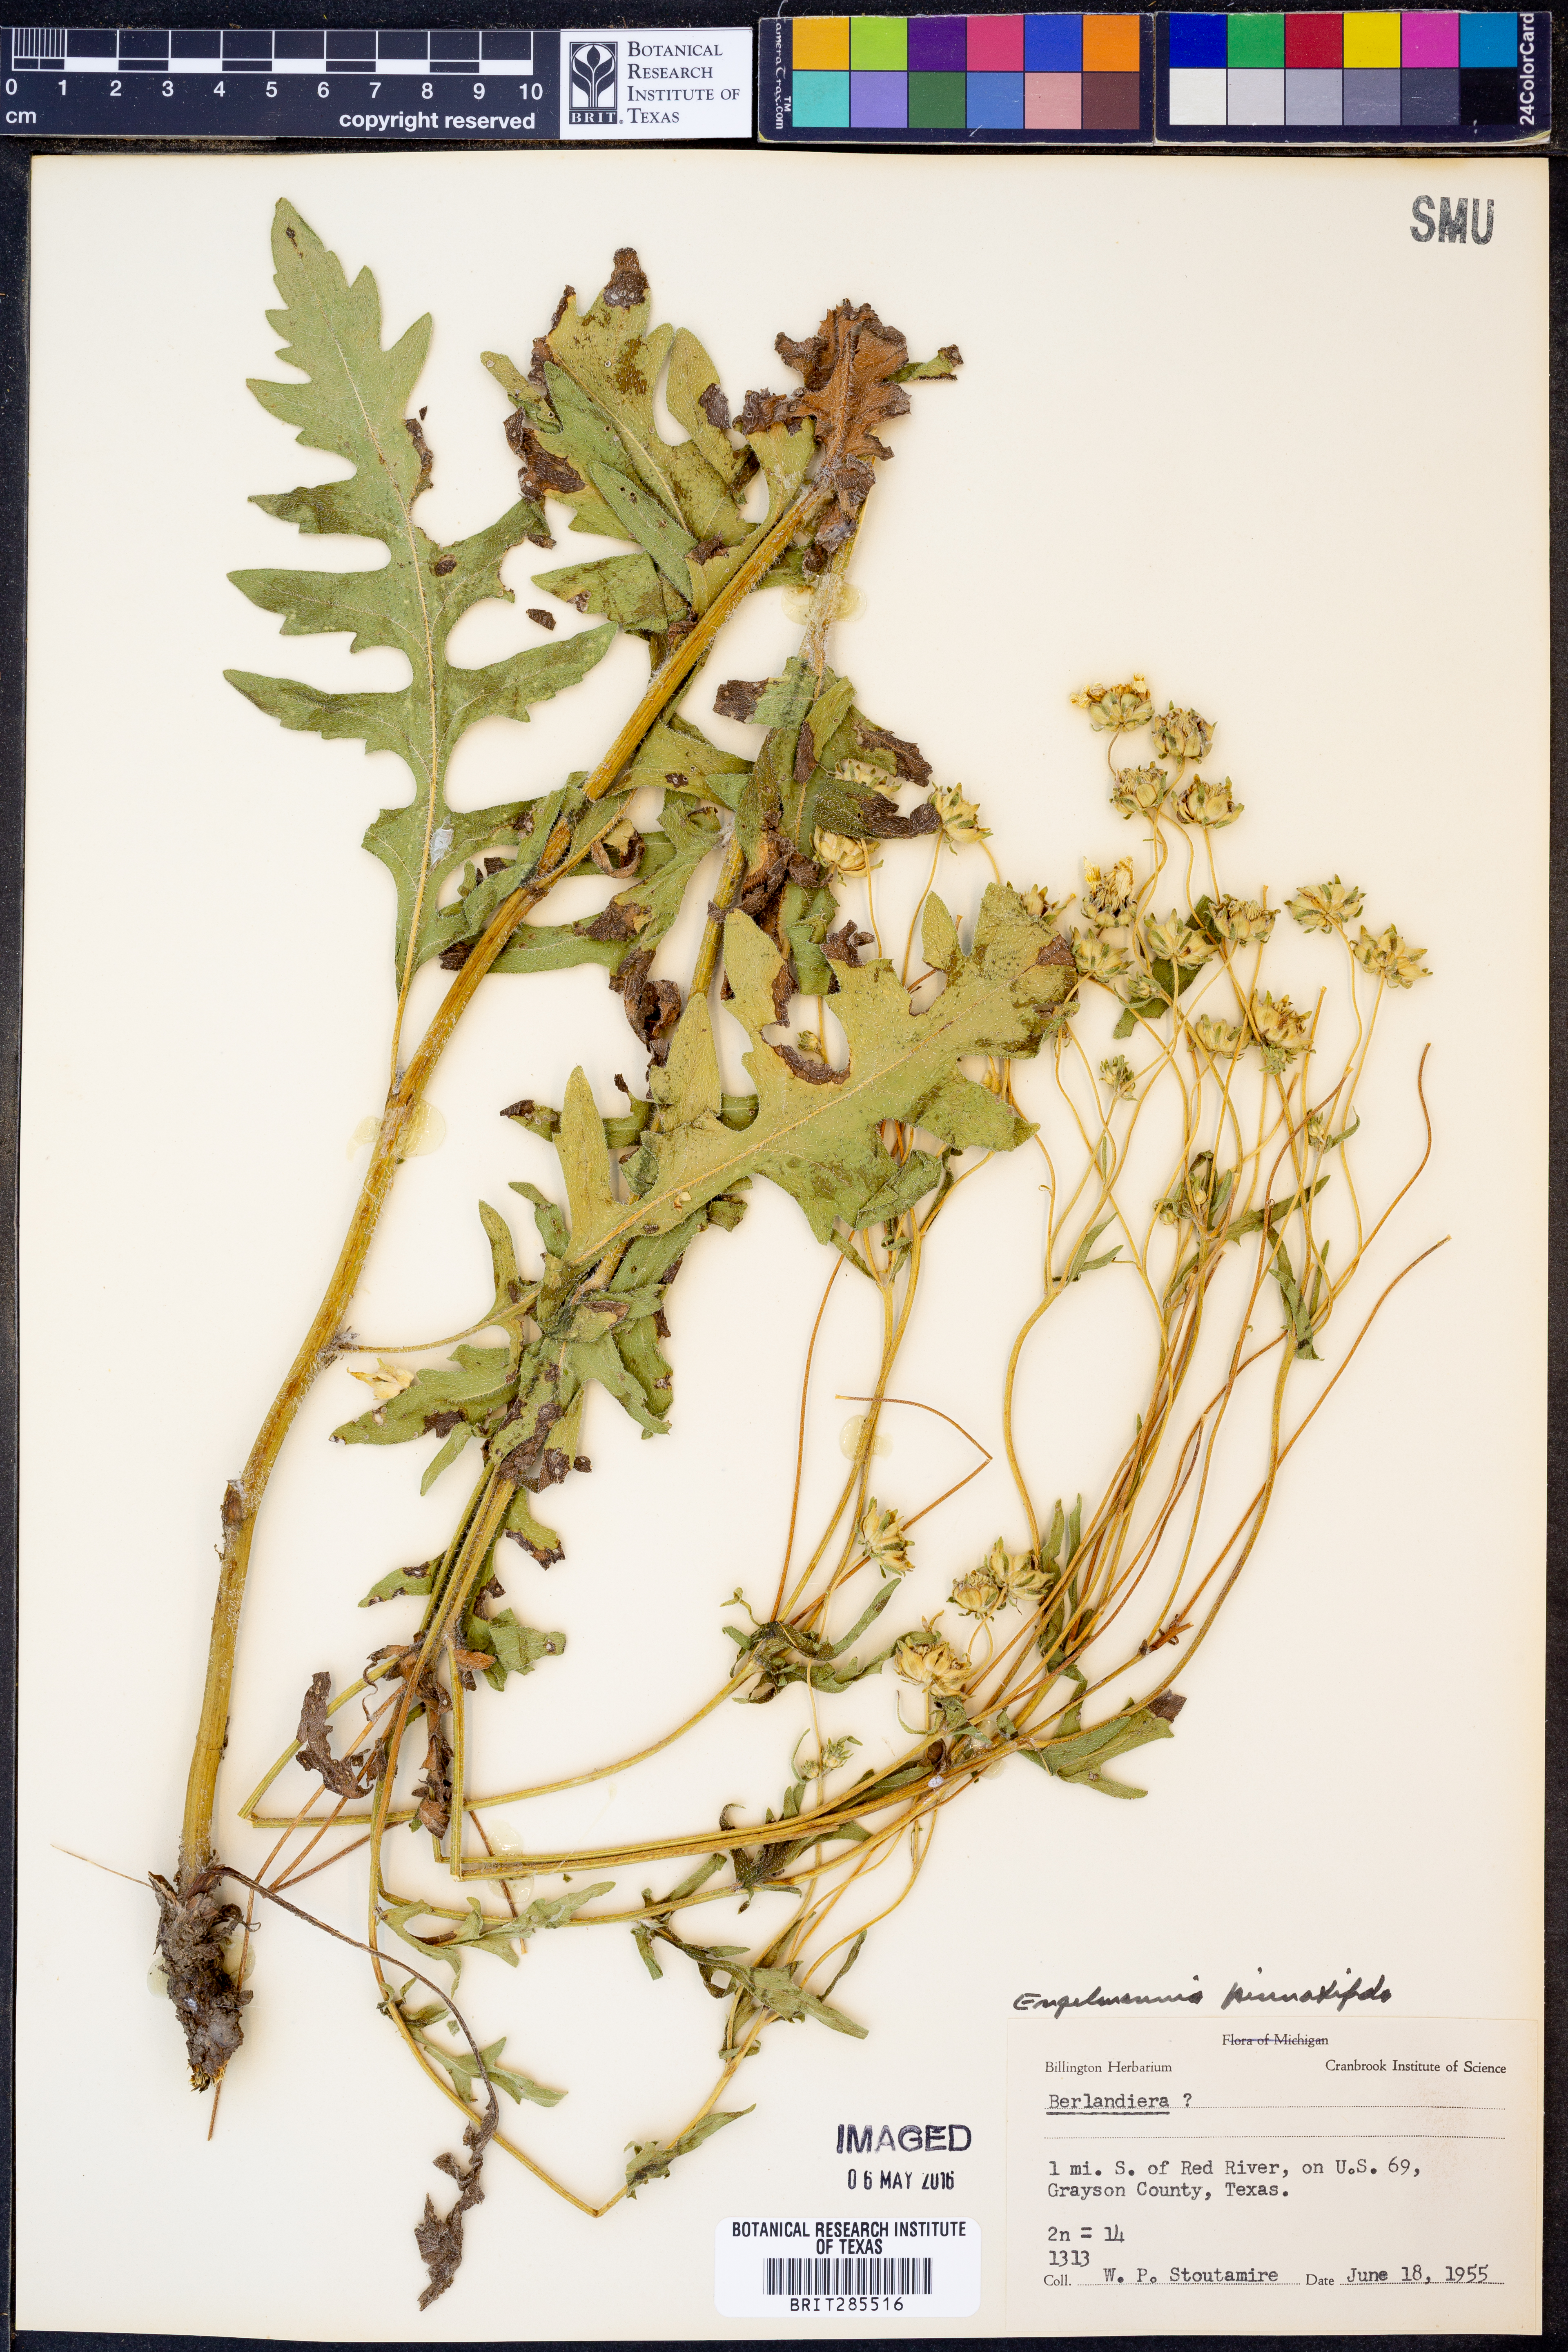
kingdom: Plantae
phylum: Tracheophyta
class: Magnoliopsida
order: Asterales
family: Asteraceae
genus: Engelmannia
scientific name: Engelmannia peristenia
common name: Engelmann's daisy
